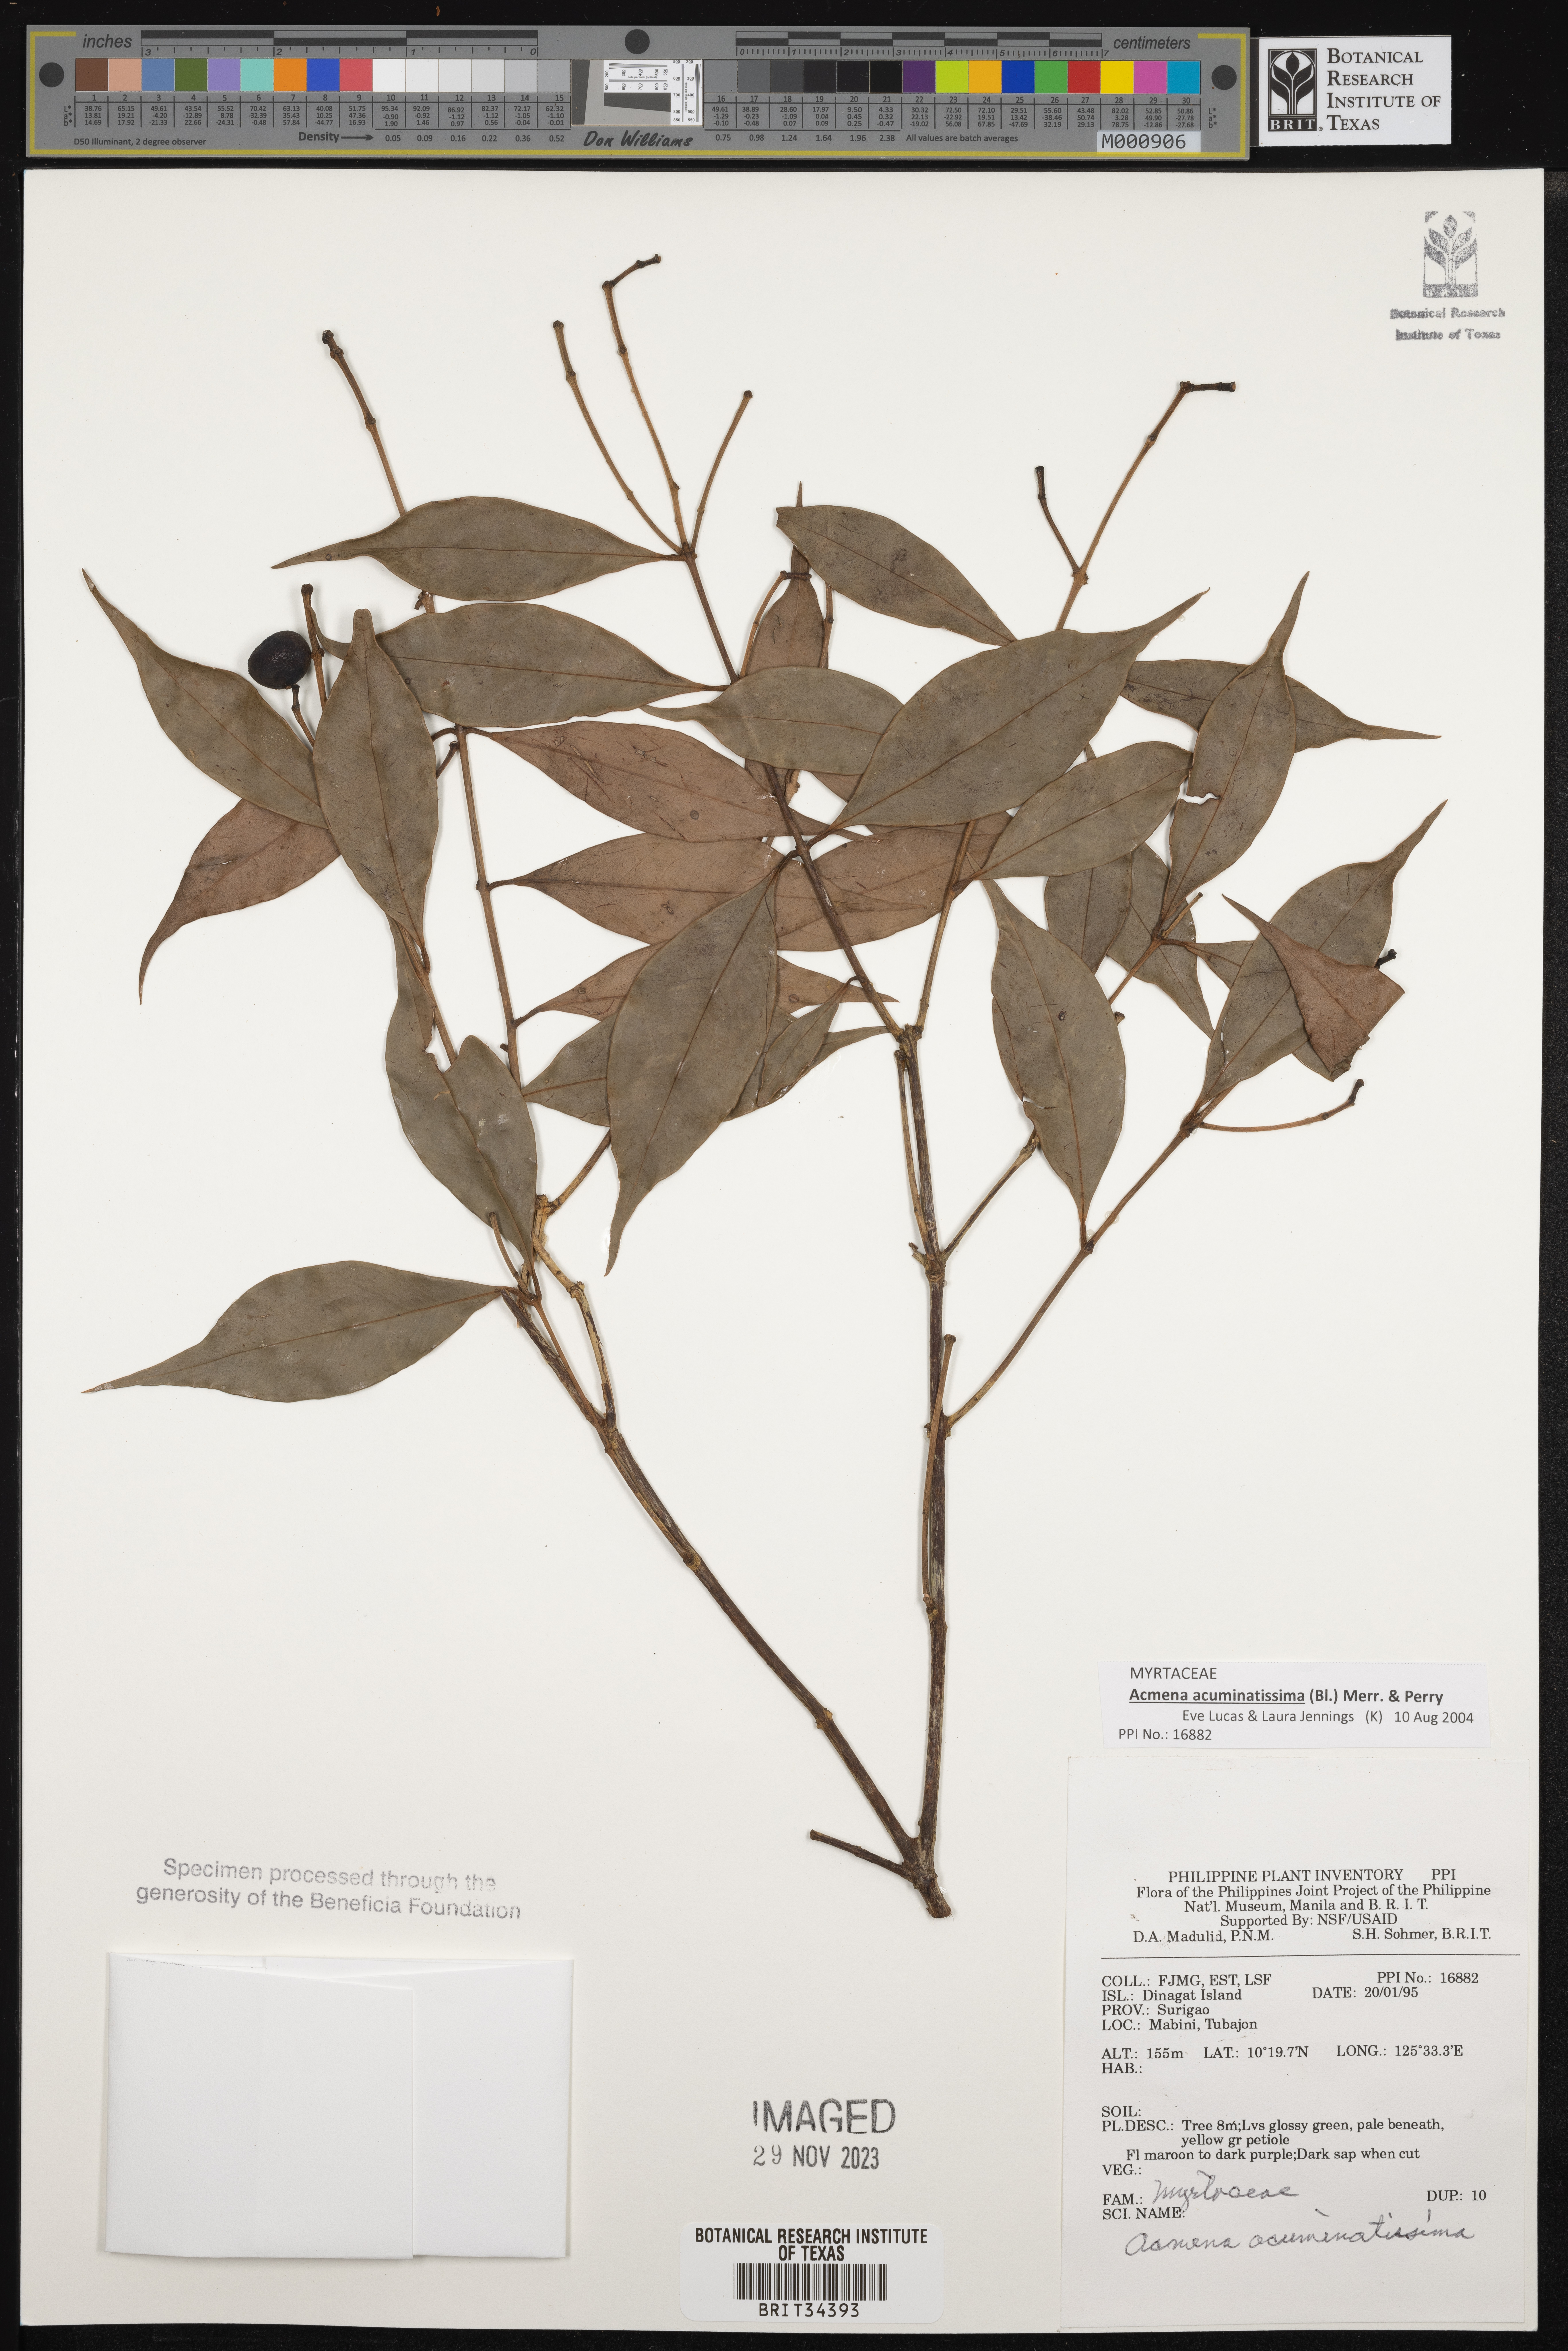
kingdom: Plantae
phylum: Tracheophyta
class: Magnoliopsida
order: Myrtales
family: Myrtaceae
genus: Syzygium
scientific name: Syzygium acuminatissimum
